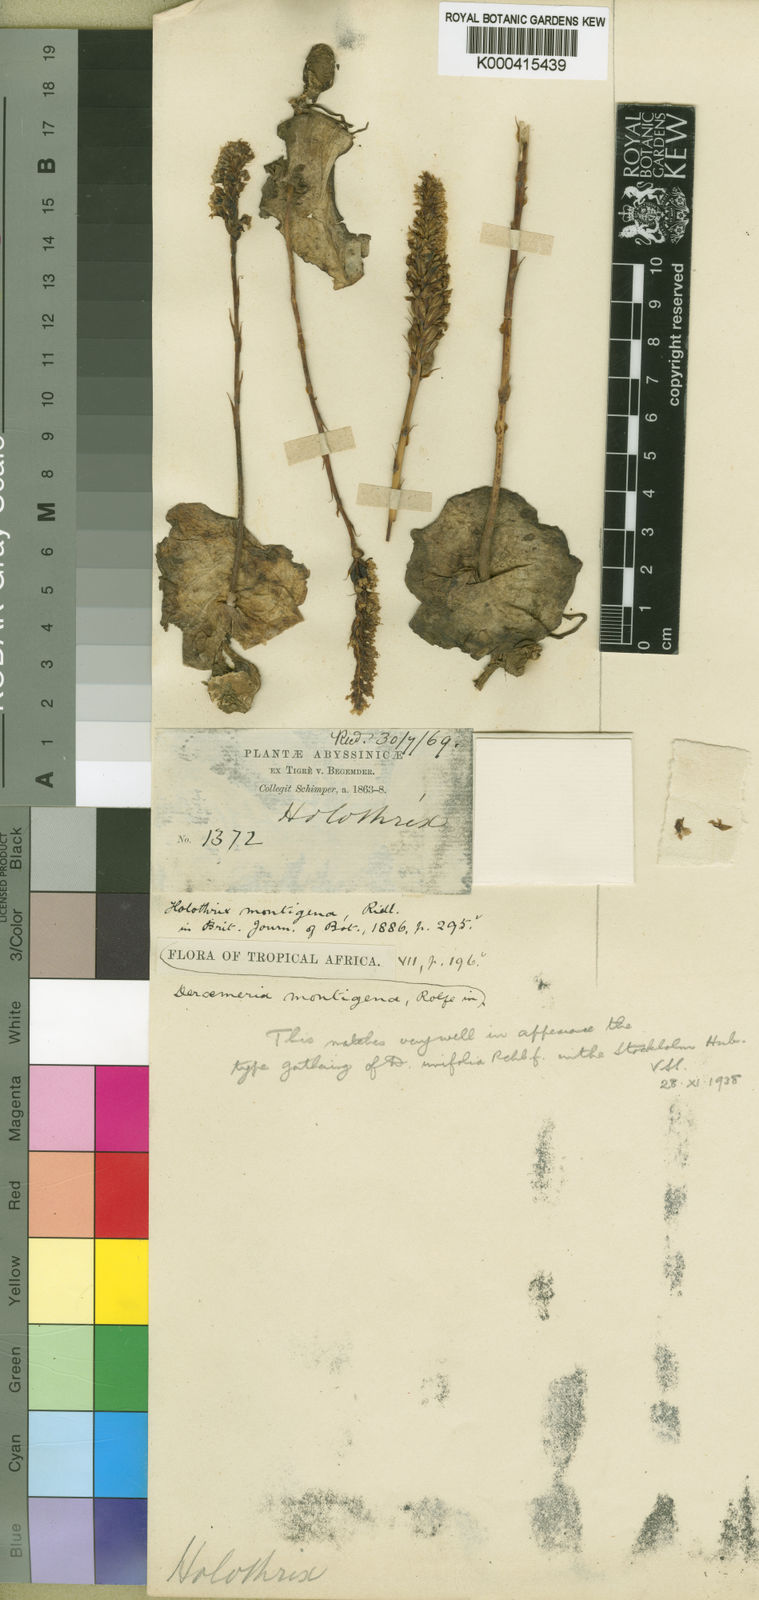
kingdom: Plantae
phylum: Tracheophyta
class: Liliopsida
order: Asparagales
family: Orchidaceae
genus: Holothrix
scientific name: Holothrix unifolia
